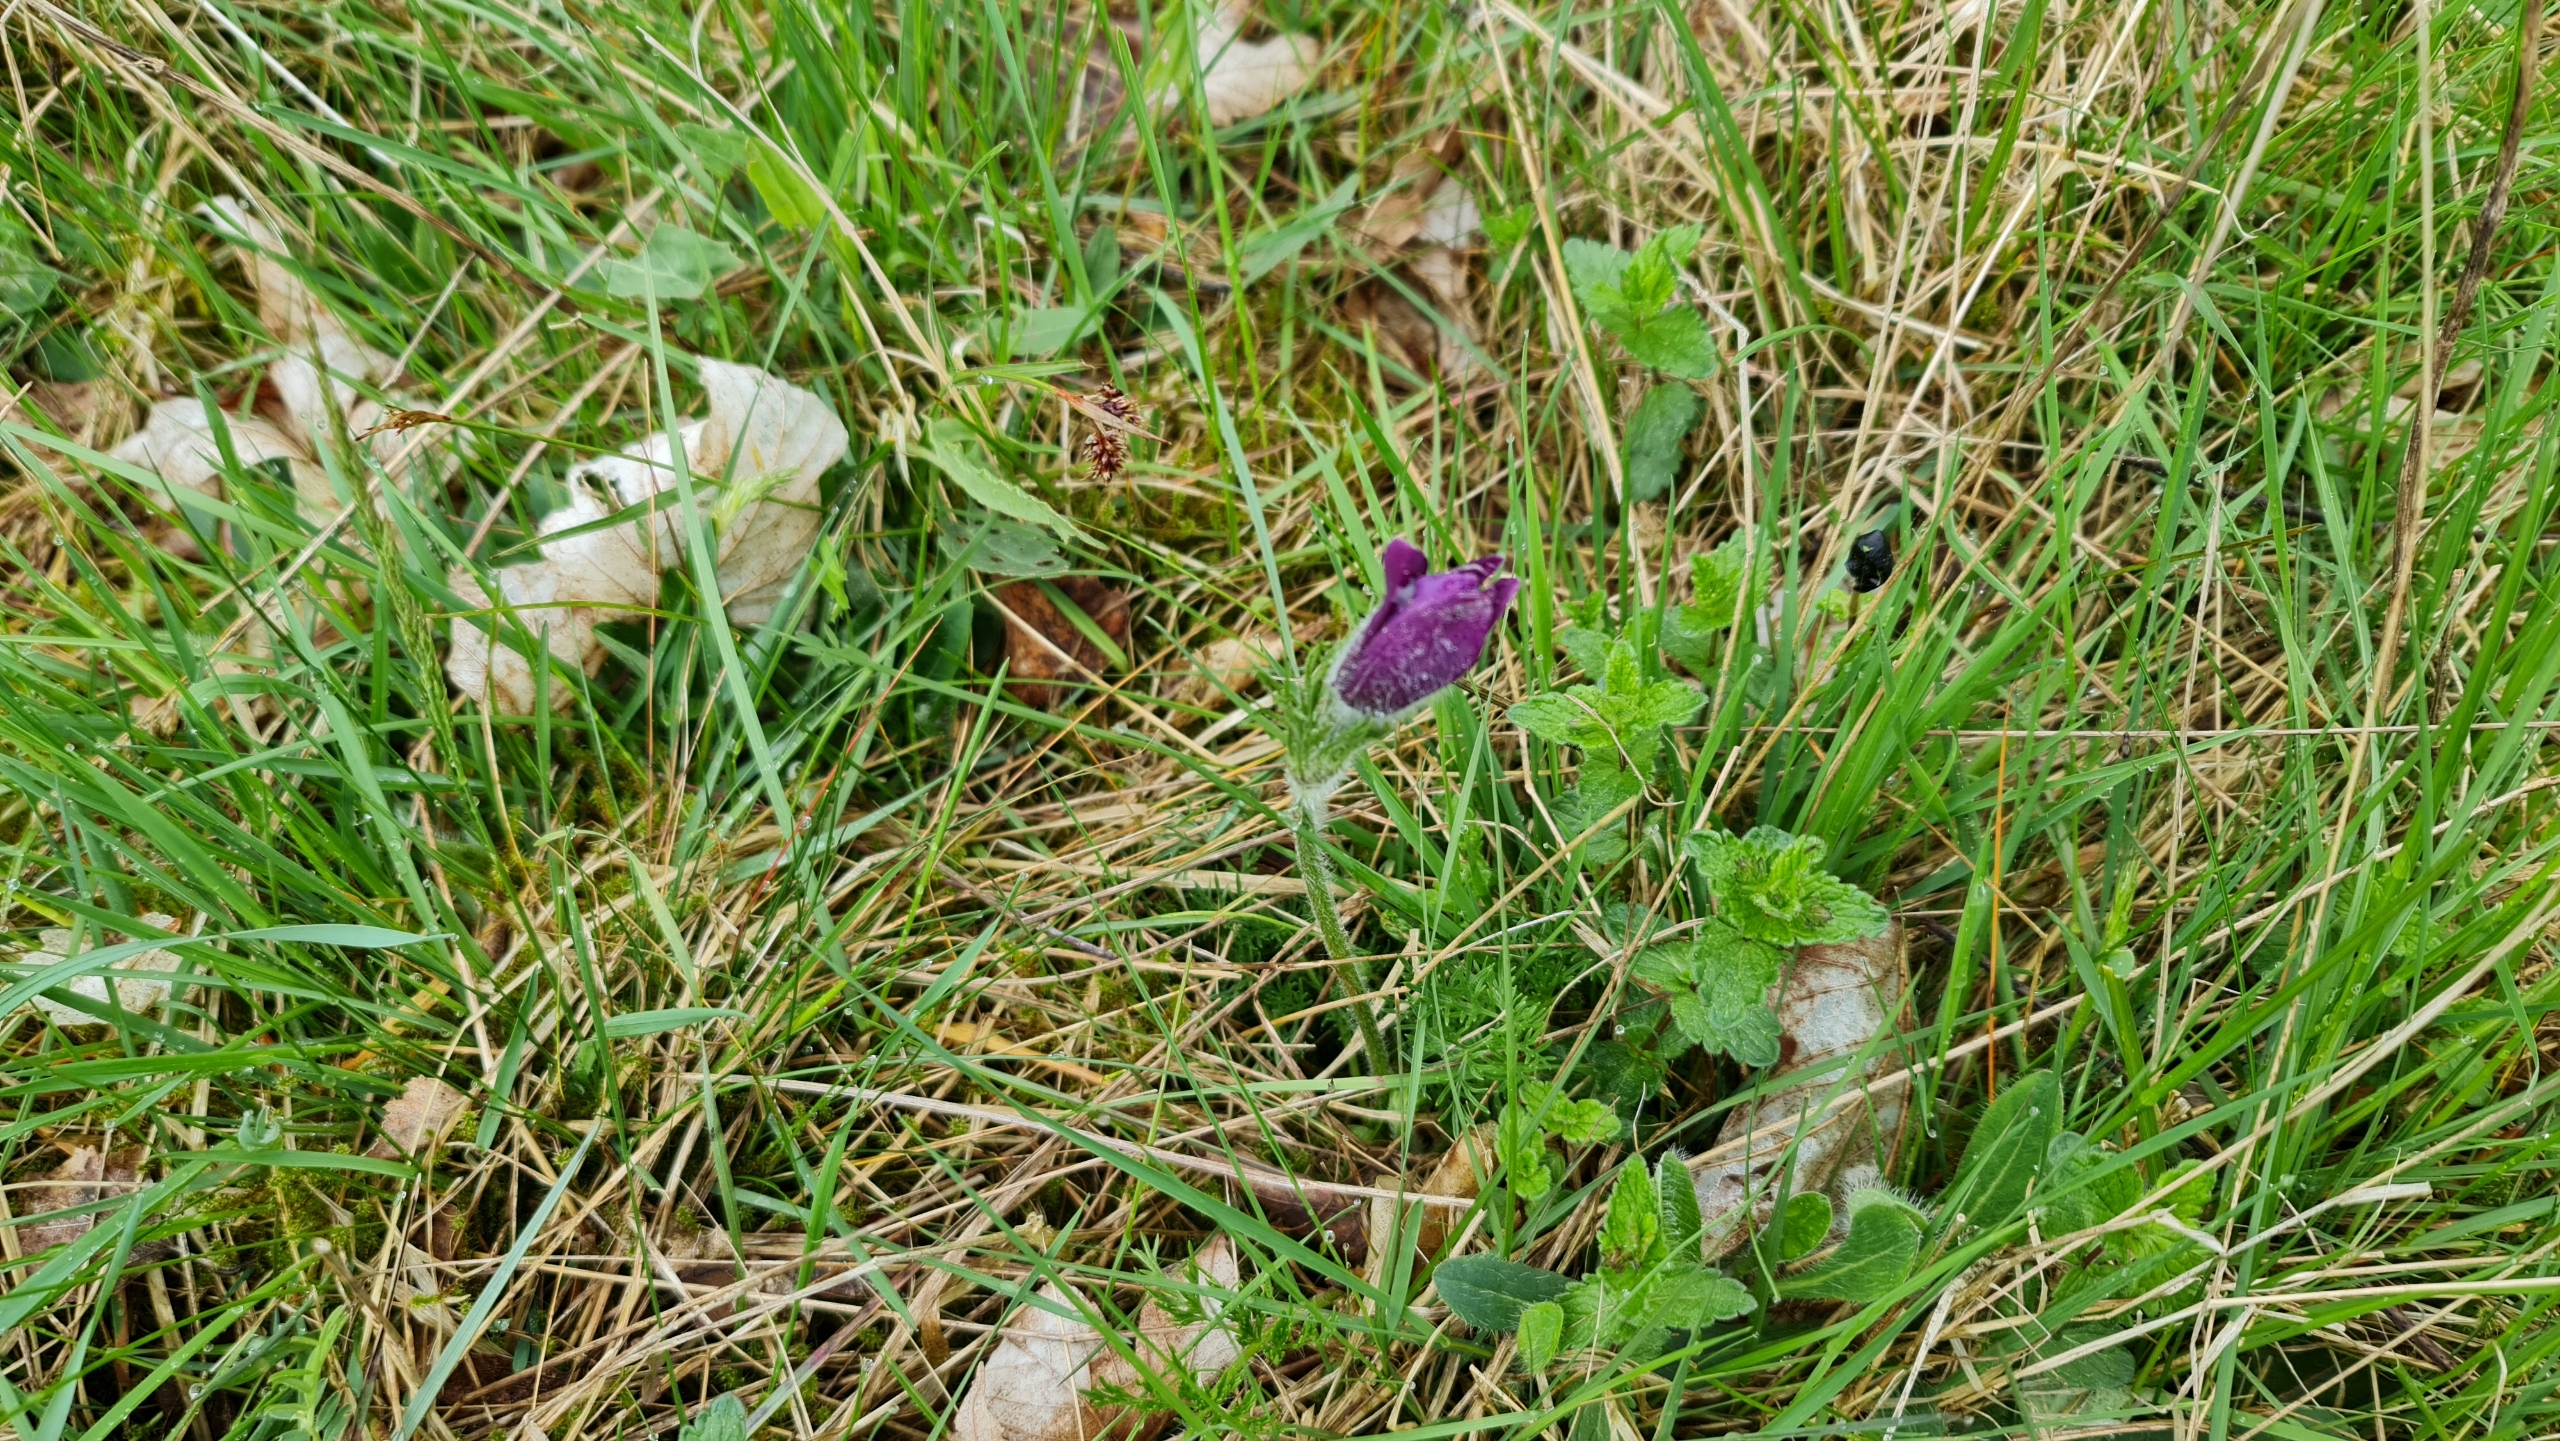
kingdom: Plantae
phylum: Tracheophyta
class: Magnoliopsida
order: Ranunculales
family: Ranunculaceae
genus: Pulsatilla
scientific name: Pulsatilla vulgaris
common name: Opret kobjælde
